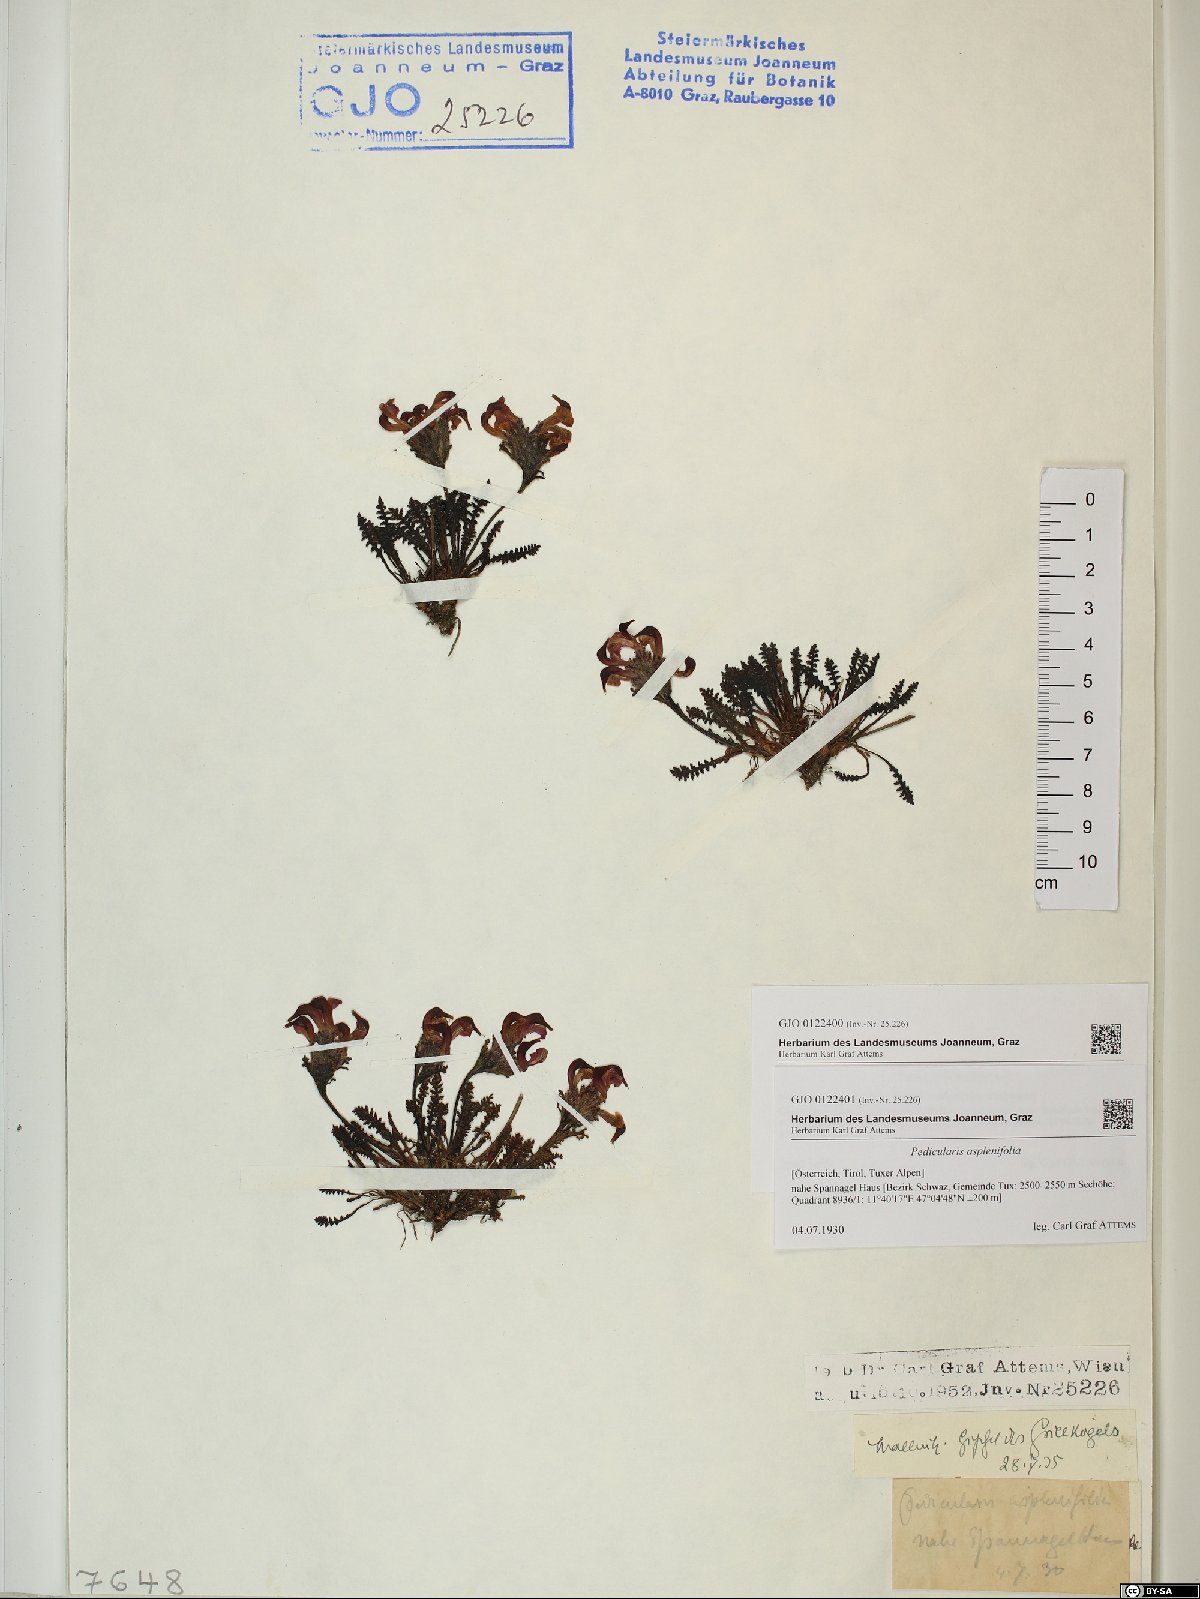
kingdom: Plantae
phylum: Tracheophyta
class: Magnoliopsida
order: Lamiales
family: Orobanchaceae
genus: Pedicularis
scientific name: Pedicularis asplenifolia
